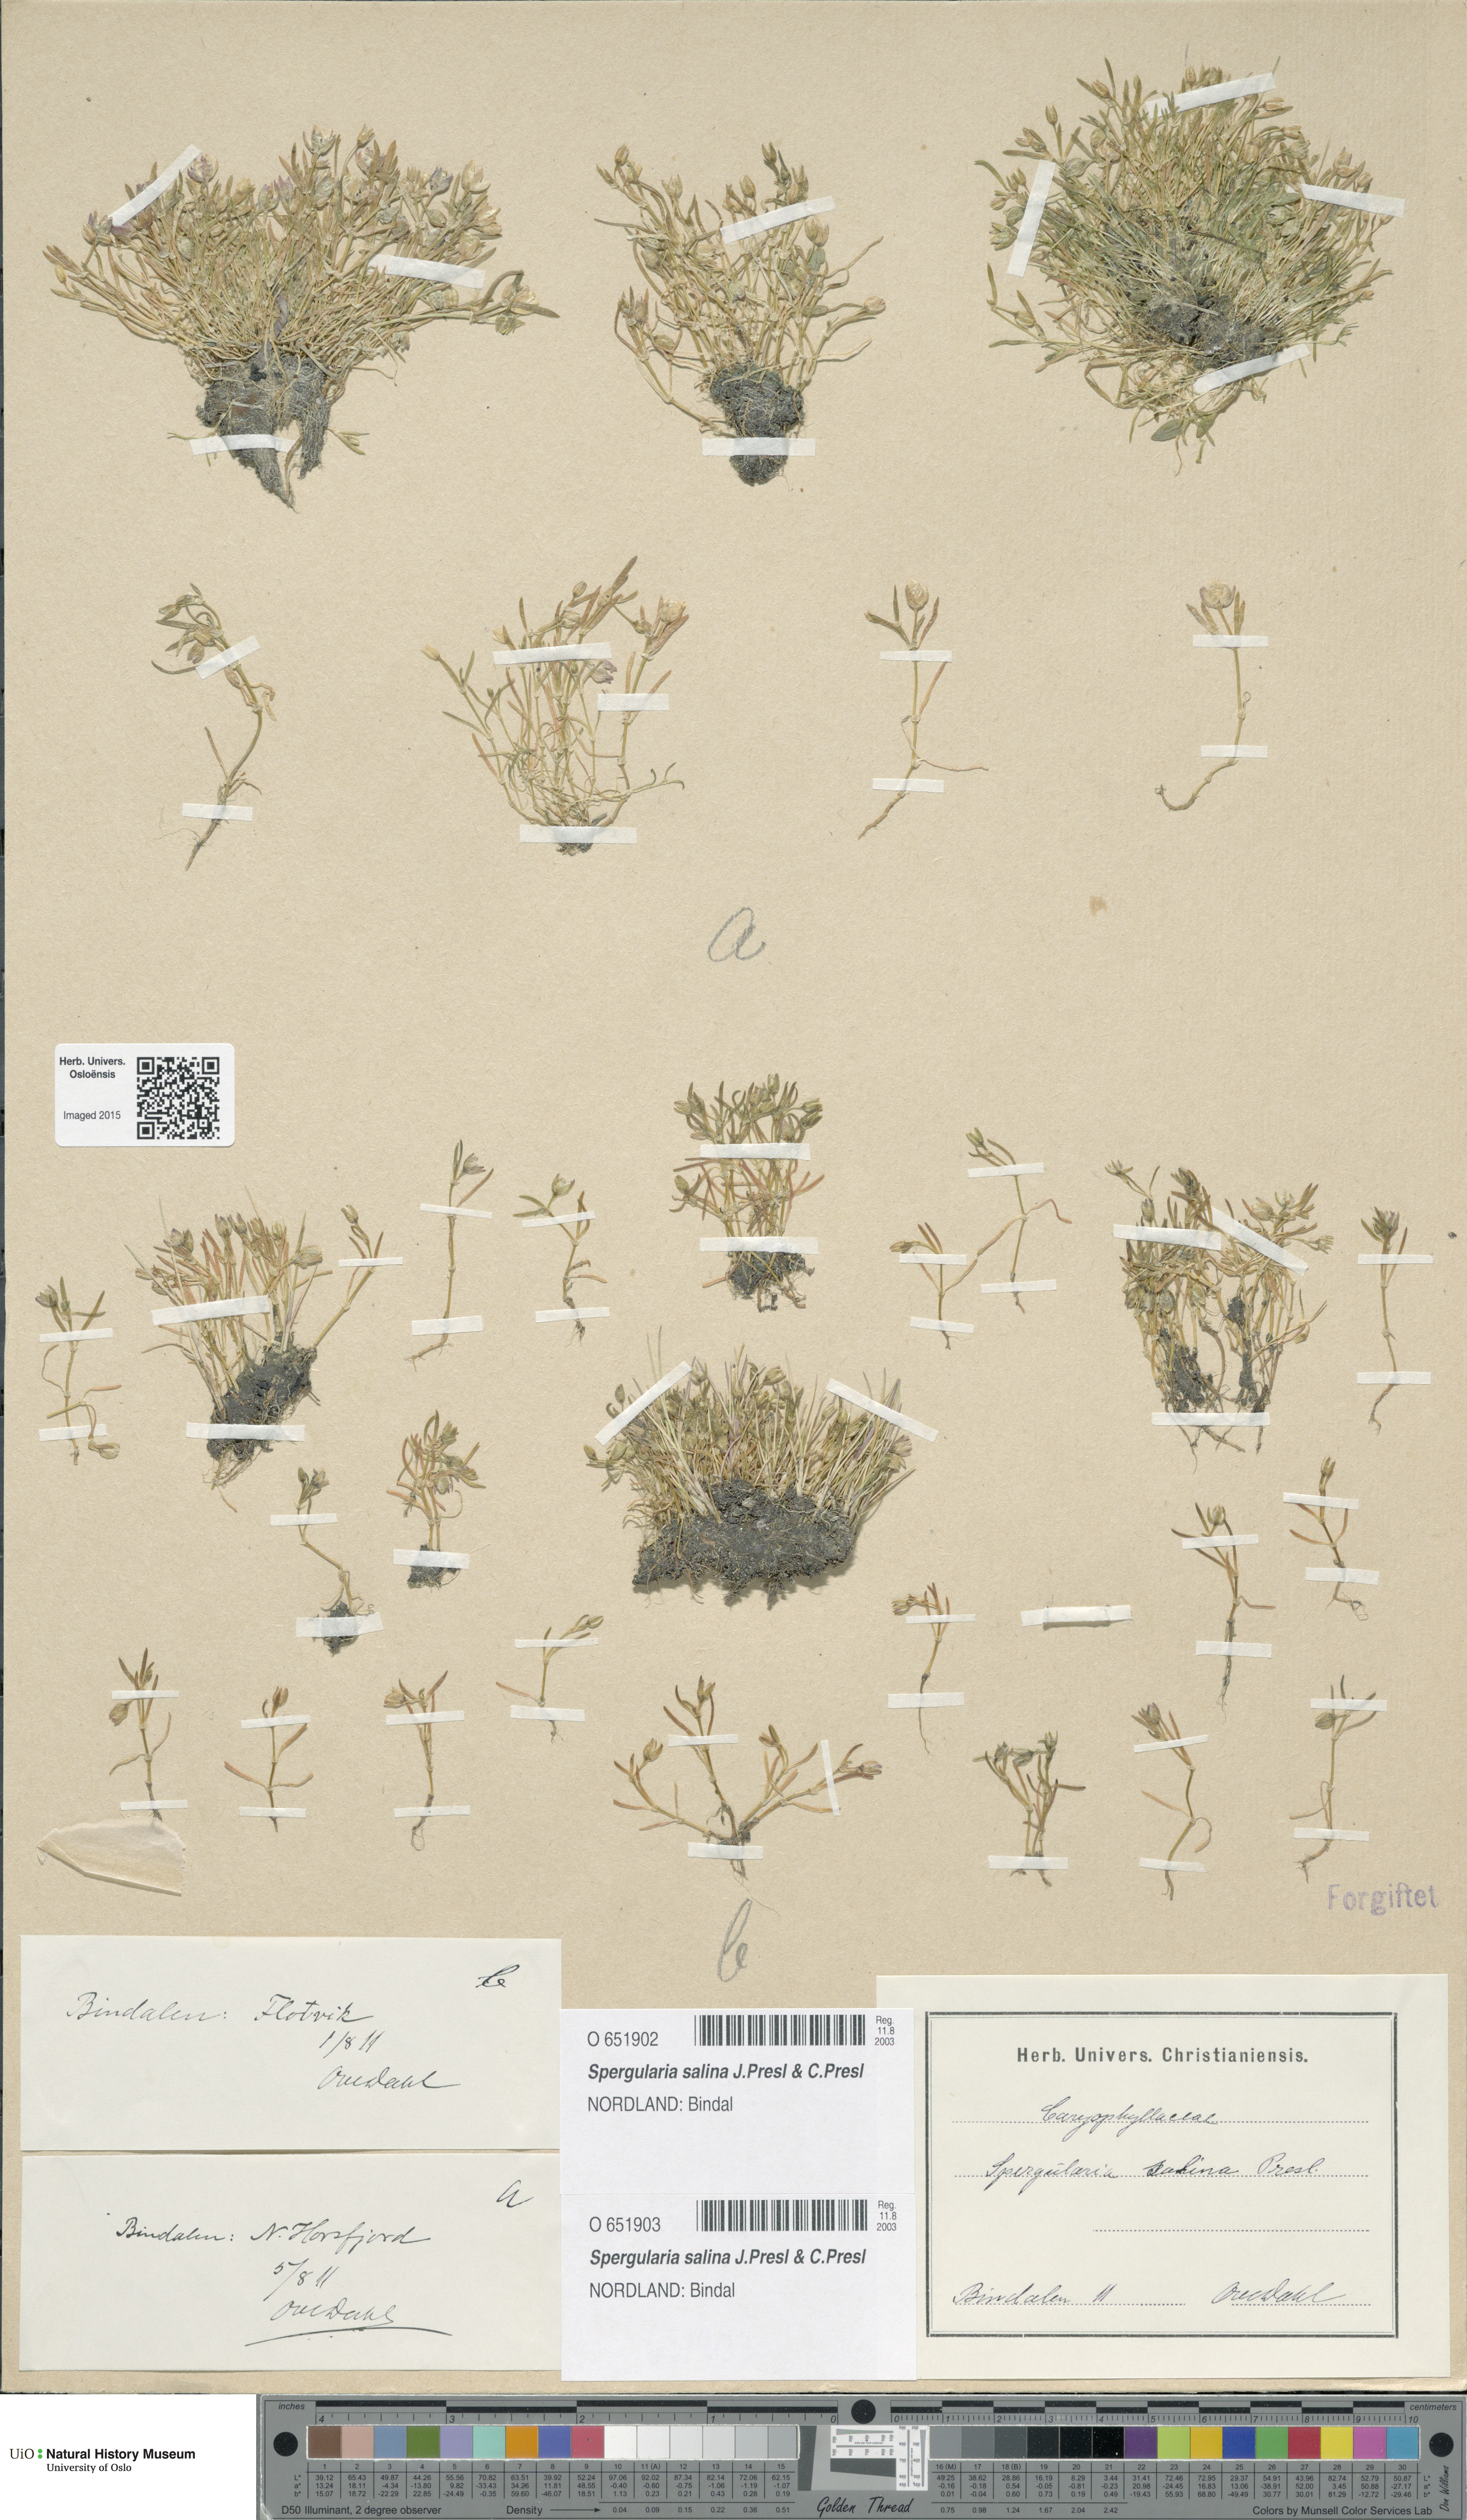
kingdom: Plantae
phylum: Tracheophyta
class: Magnoliopsida
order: Caryophyllales
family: Caryophyllaceae
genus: Spergularia
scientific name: Spergularia marina
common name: Lesser sea-spurrey
